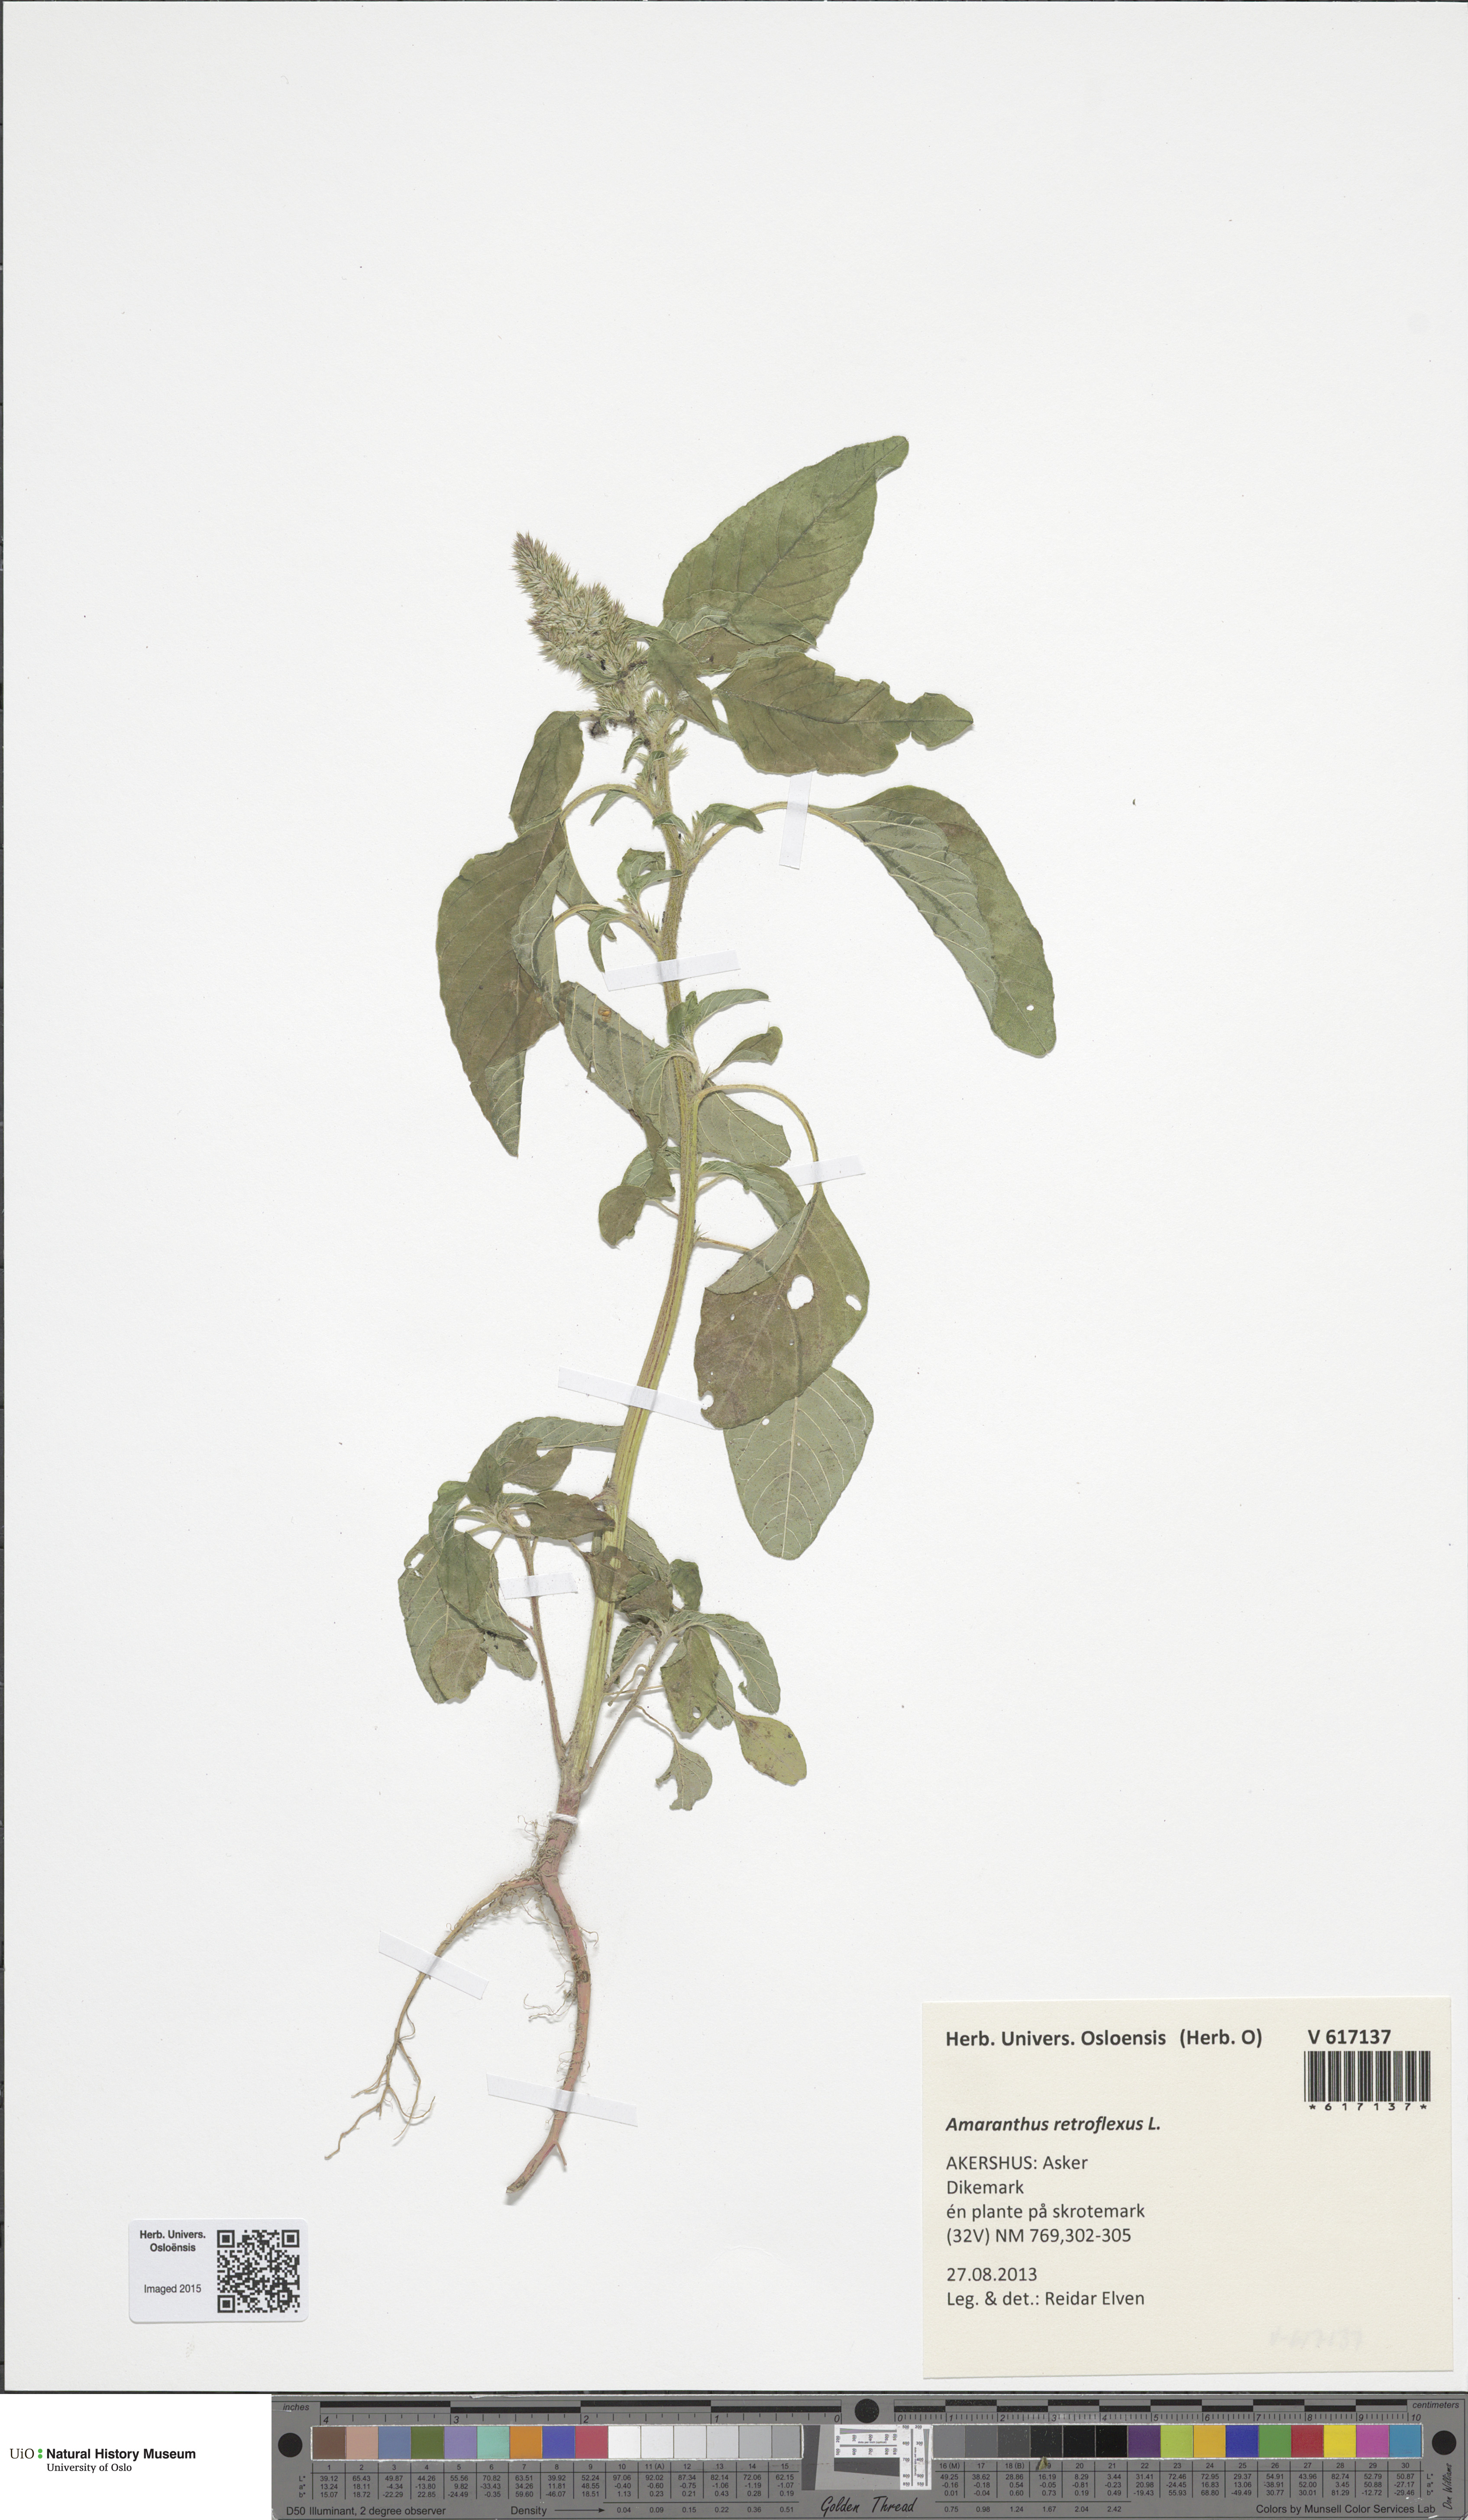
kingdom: Plantae
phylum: Tracheophyta
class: Magnoliopsida
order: Caryophyllales
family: Amaranthaceae
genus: Amaranthus
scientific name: Amaranthus retroflexus
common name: Redroot amaranth
